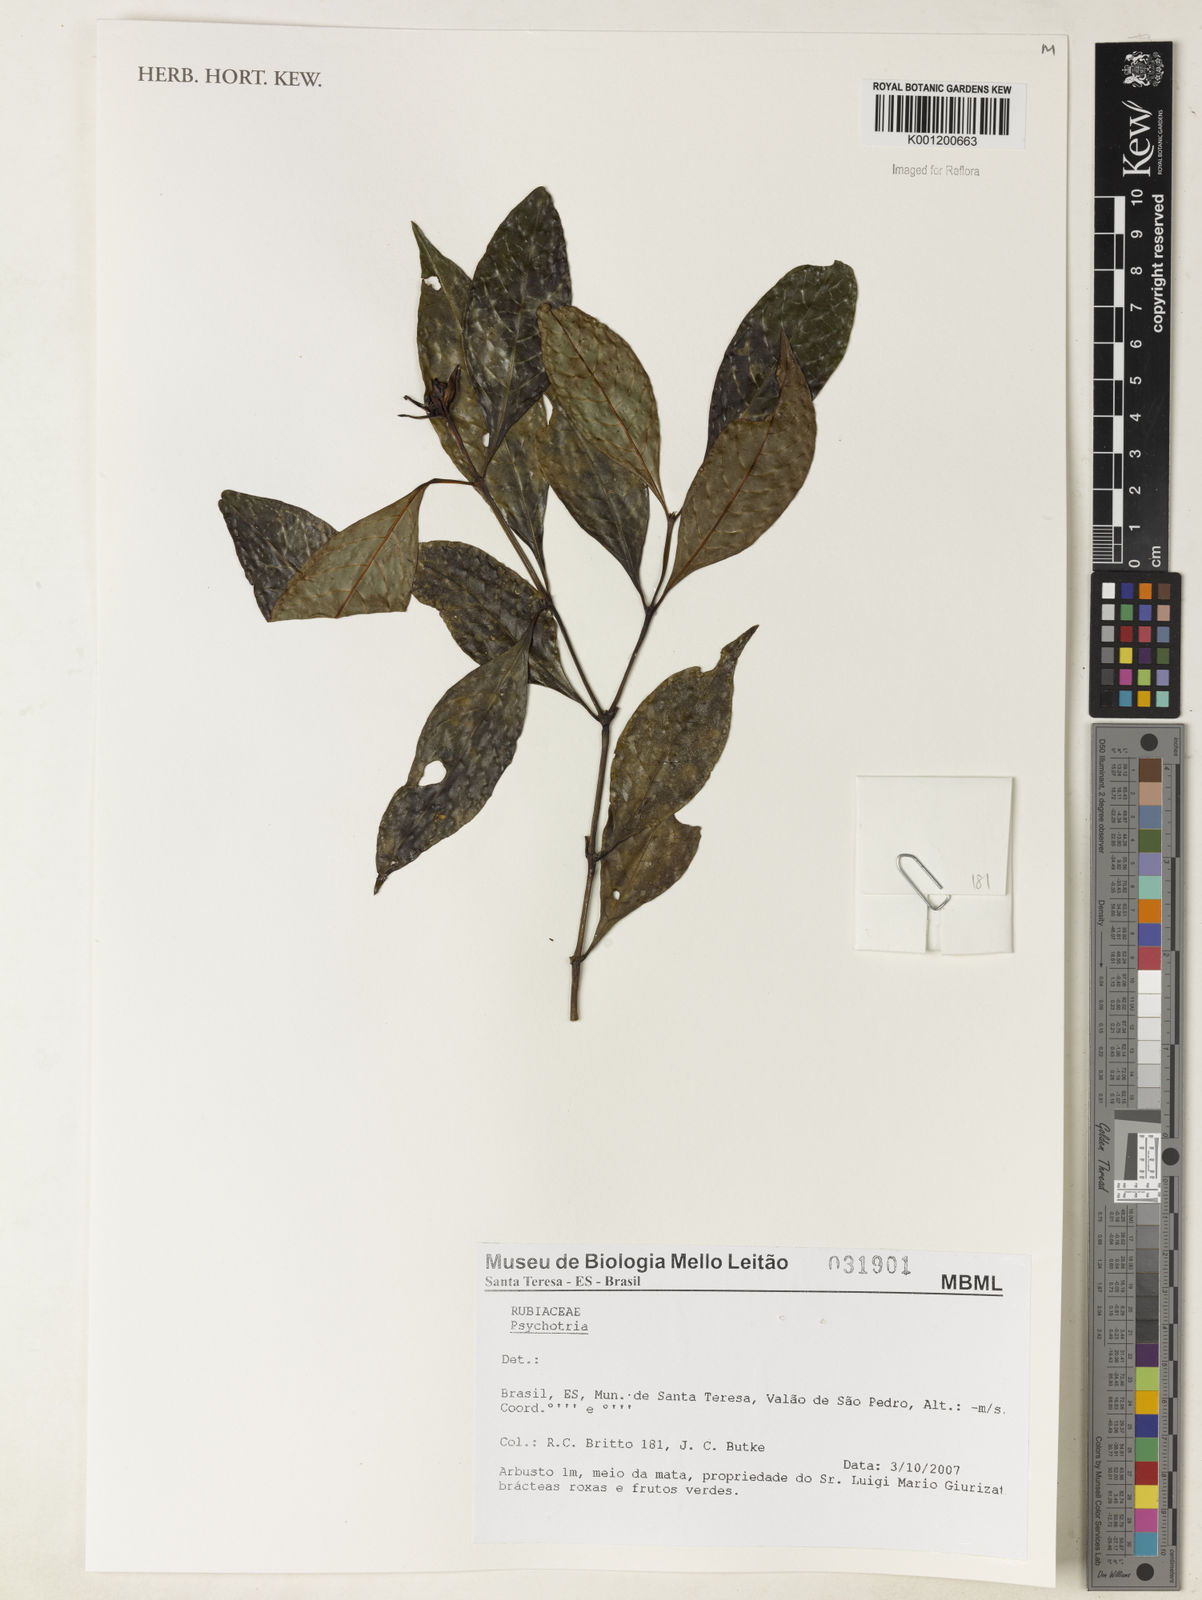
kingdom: Plantae
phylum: Tracheophyta
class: Magnoliopsida
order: Gentianales
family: Rubiaceae
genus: Psychotria
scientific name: Psychotria
